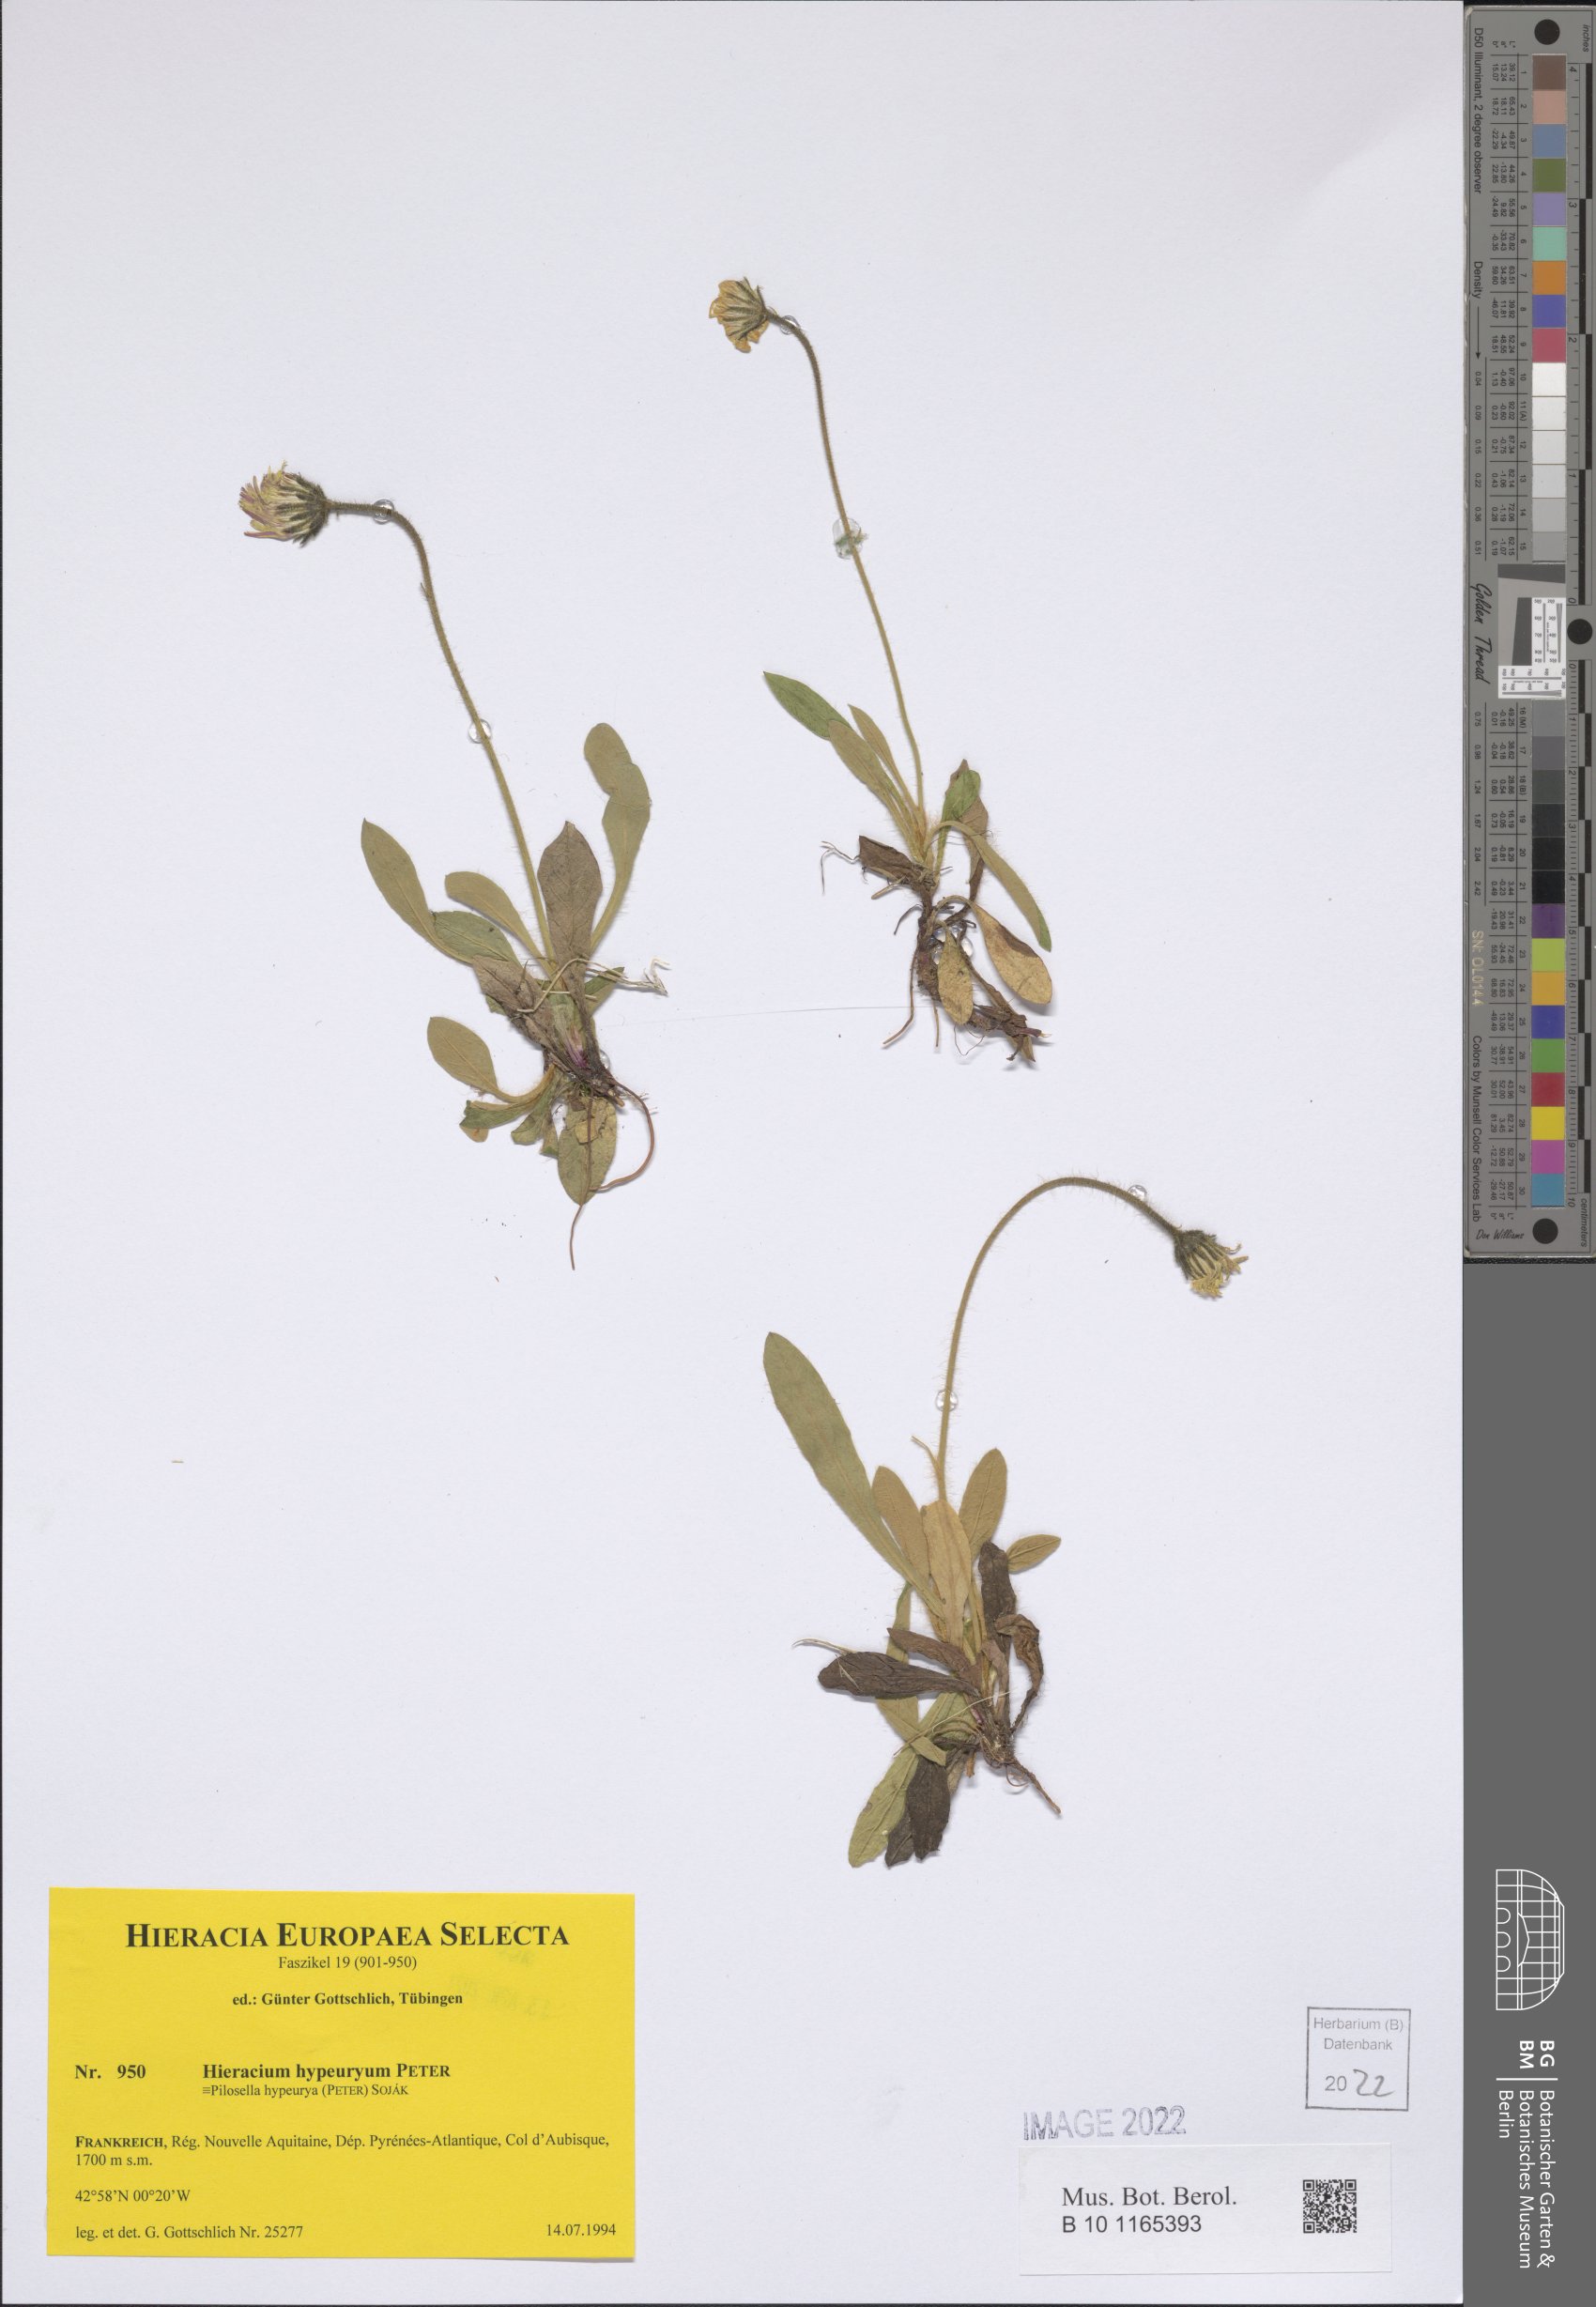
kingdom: Plantae
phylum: Tracheophyta
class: Magnoliopsida
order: Asterales
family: Asteraceae
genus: Pilosella
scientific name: Pilosella hypeurya
